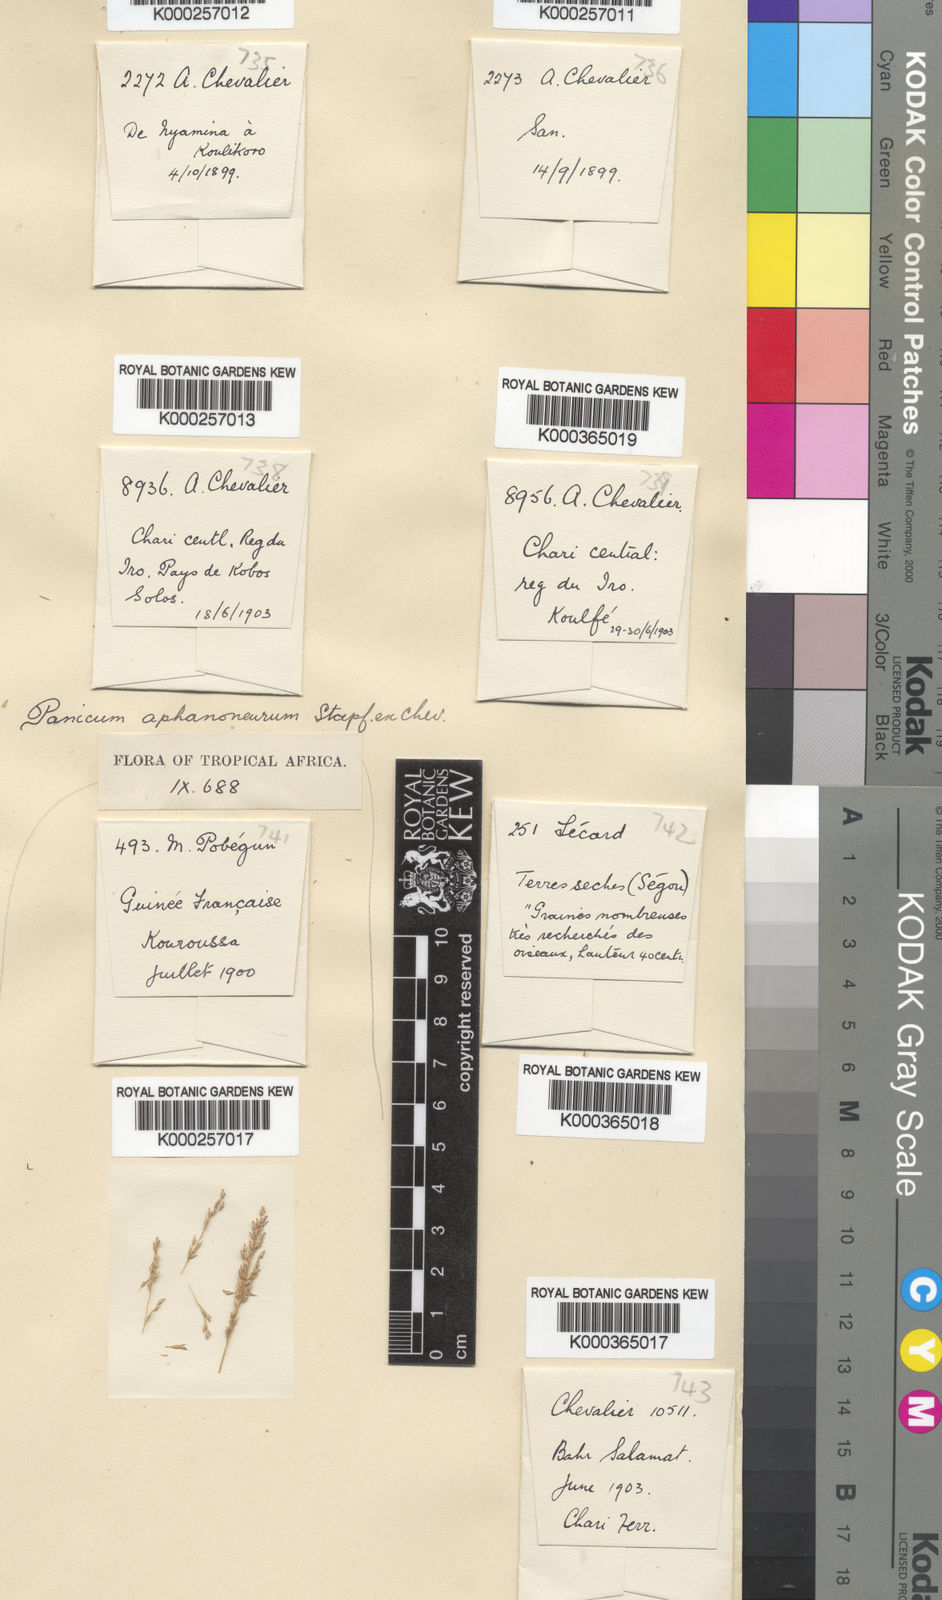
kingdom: Plantae
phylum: Tracheophyta
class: Liliopsida
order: Poales
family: Poaceae
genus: Panicum
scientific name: Panicum fluviicola
